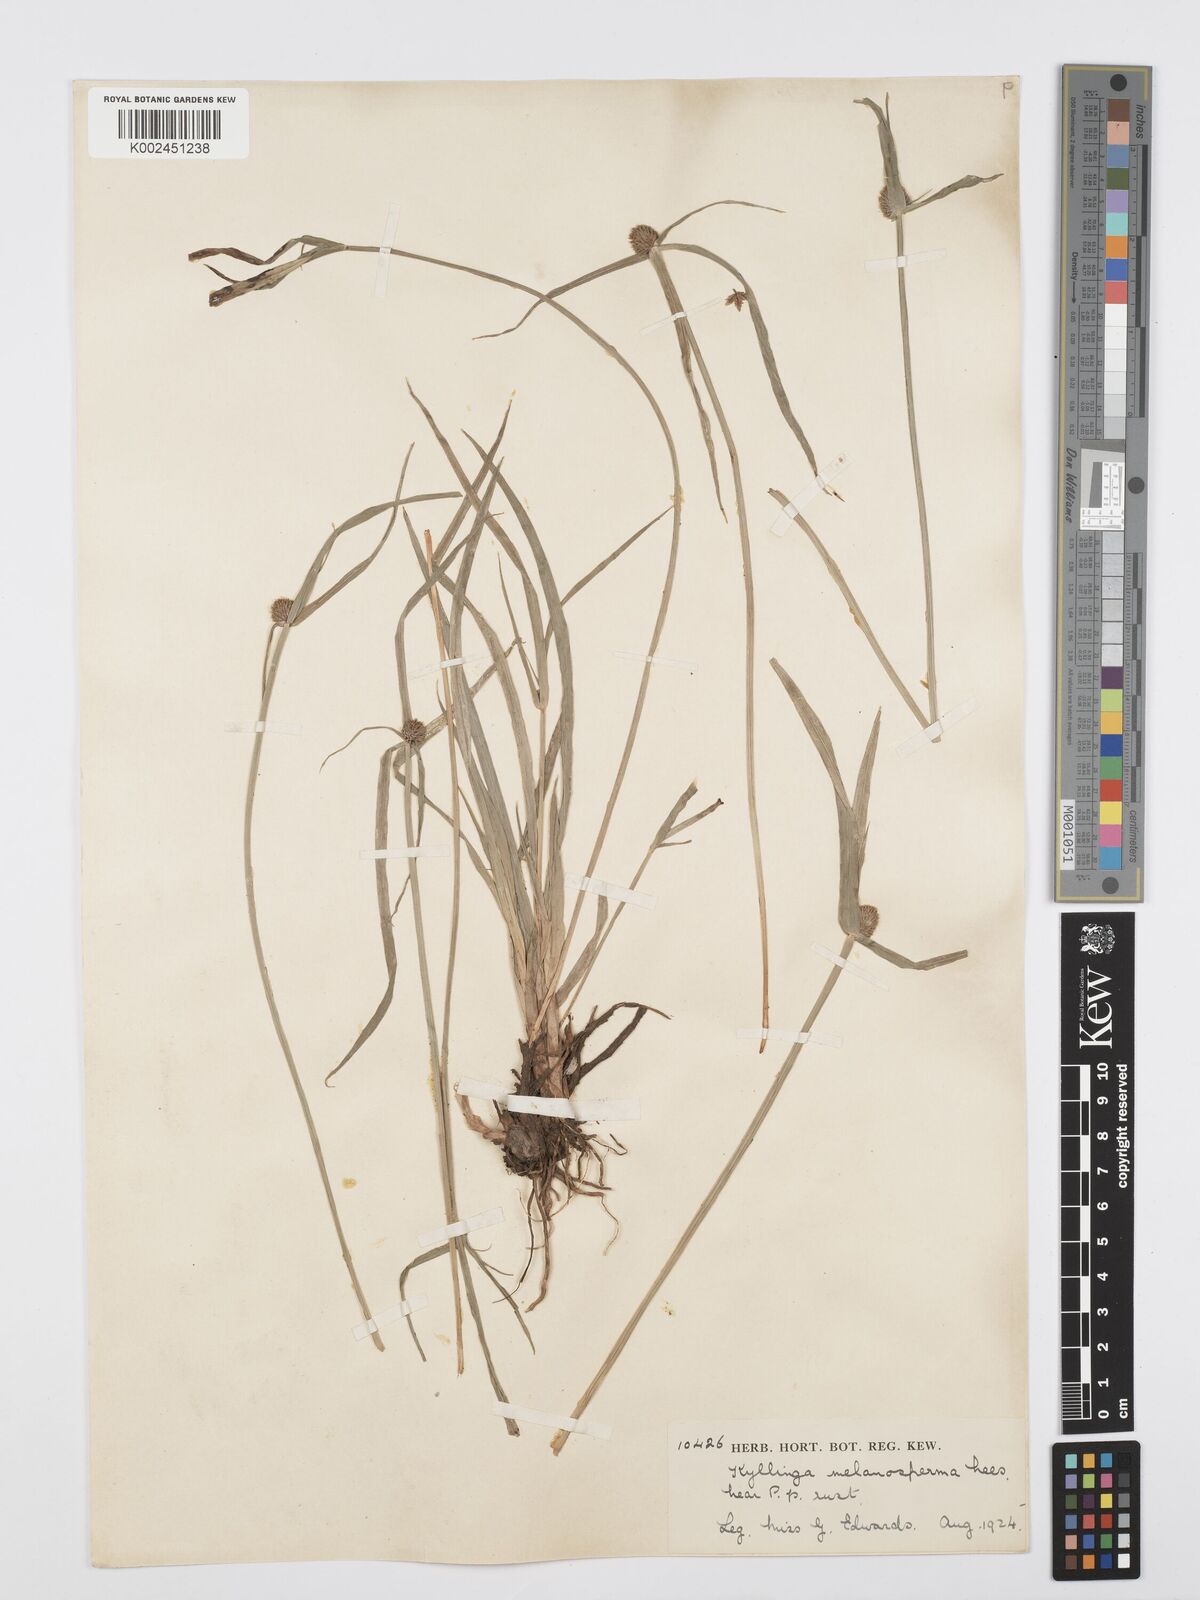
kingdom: Plantae
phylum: Tracheophyta
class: Liliopsida
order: Poales
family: Cyperaceae
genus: Cyperus
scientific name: Cyperus melanospermus
